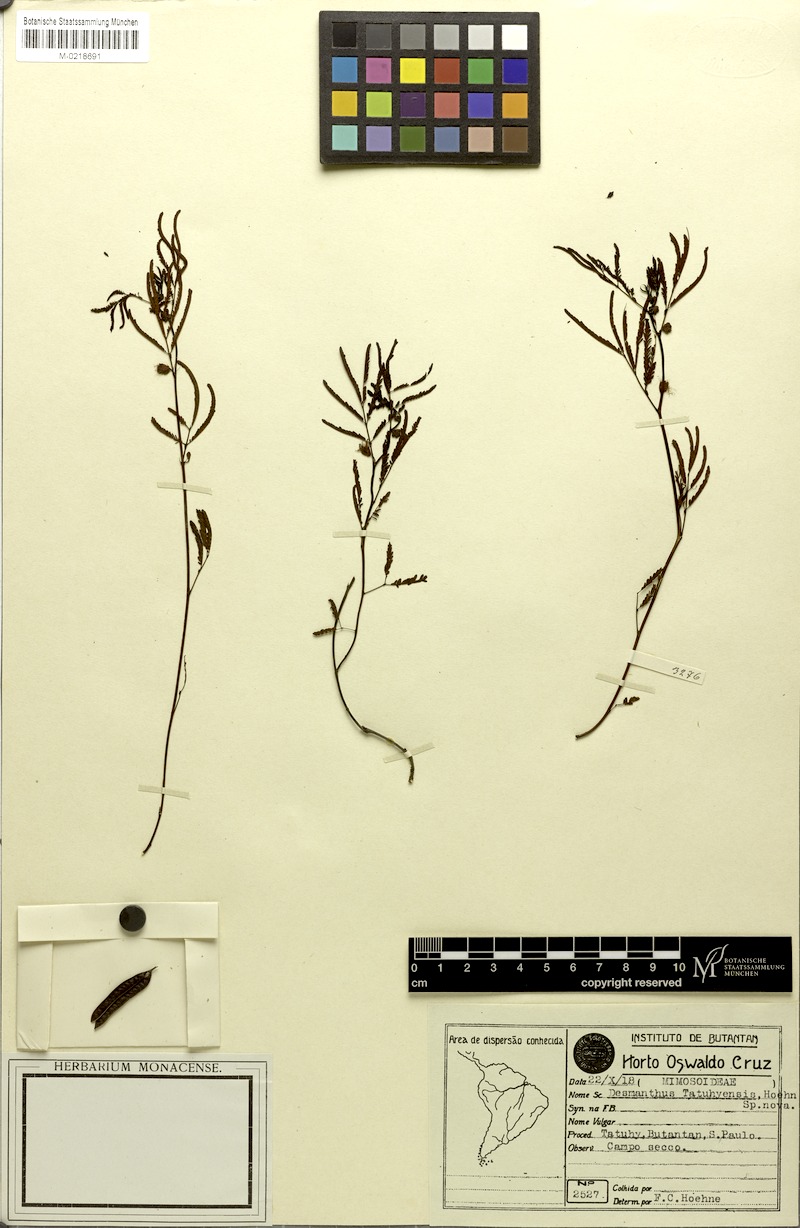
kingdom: Plantae
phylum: Tracheophyta
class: Magnoliopsida
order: Fabales
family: Fabaceae
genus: Desmanthus
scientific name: Desmanthus tatuhyensis
